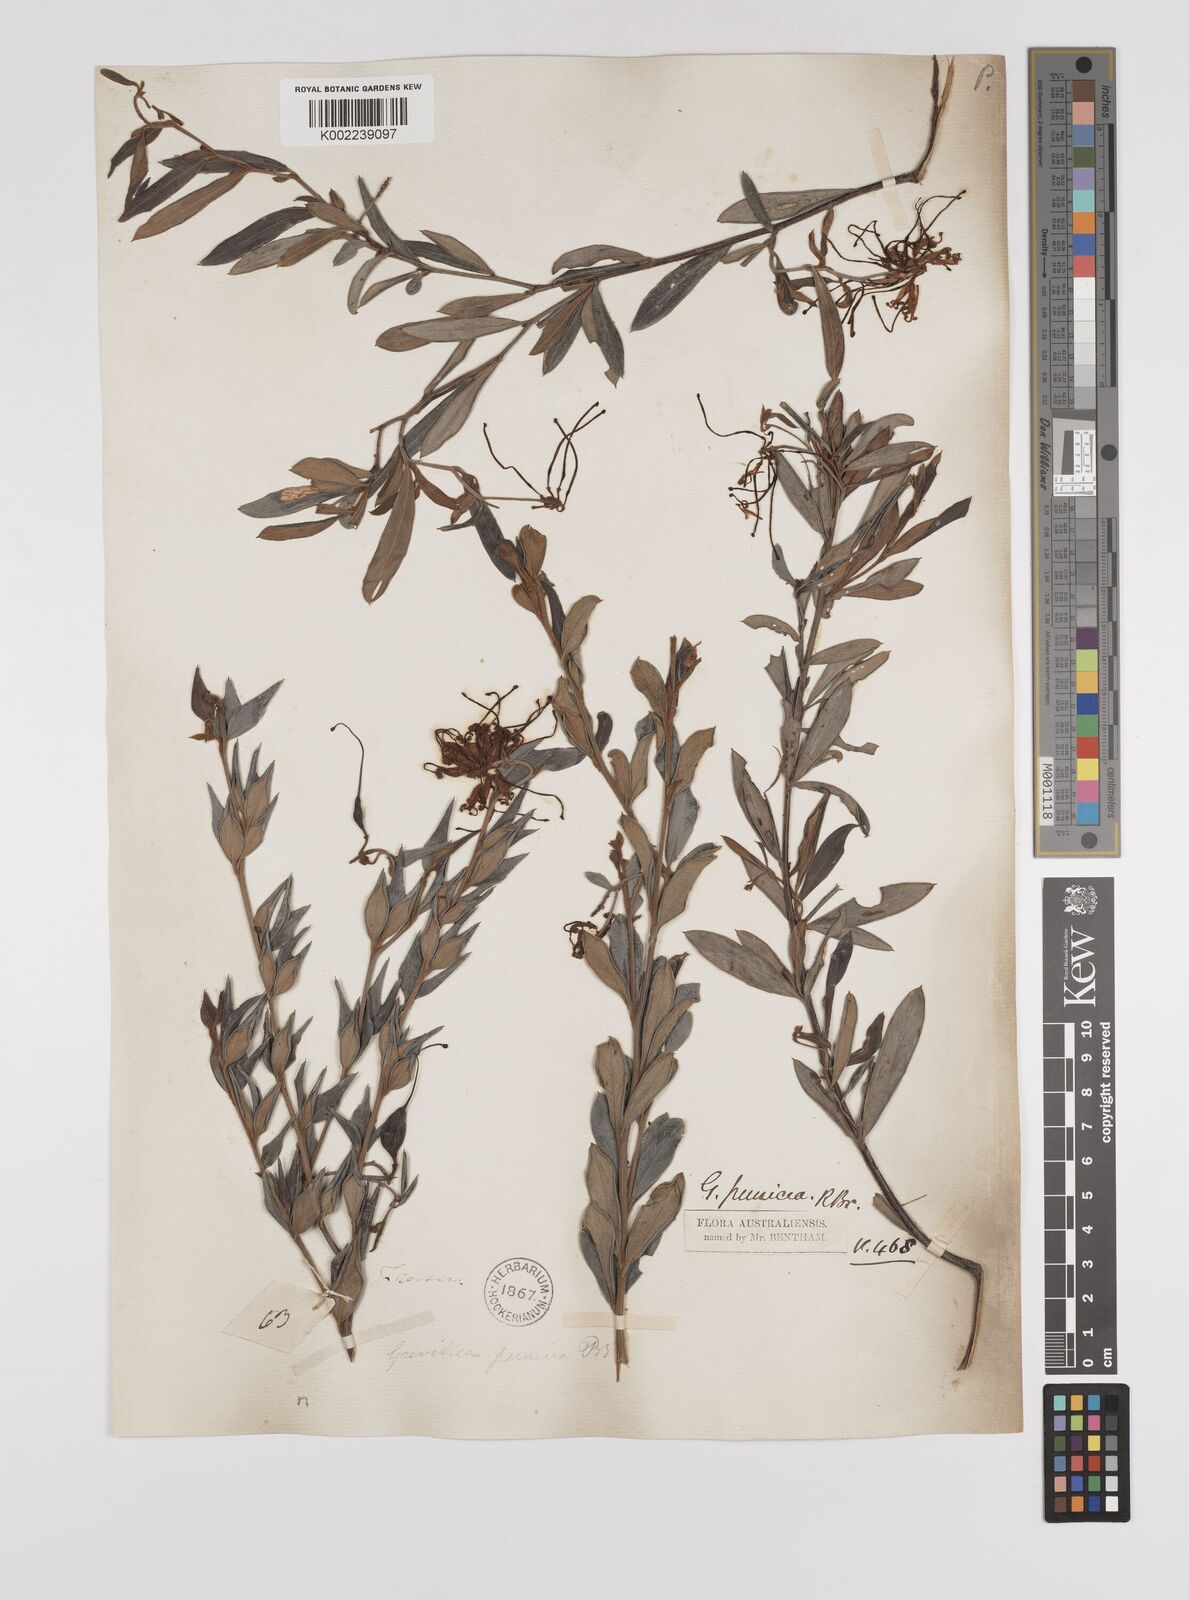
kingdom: Plantae
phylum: Tracheophyta
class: Magnoliopsida
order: Proteales
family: Proteaceae
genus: Grevillea
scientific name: Grevillea speciosa
